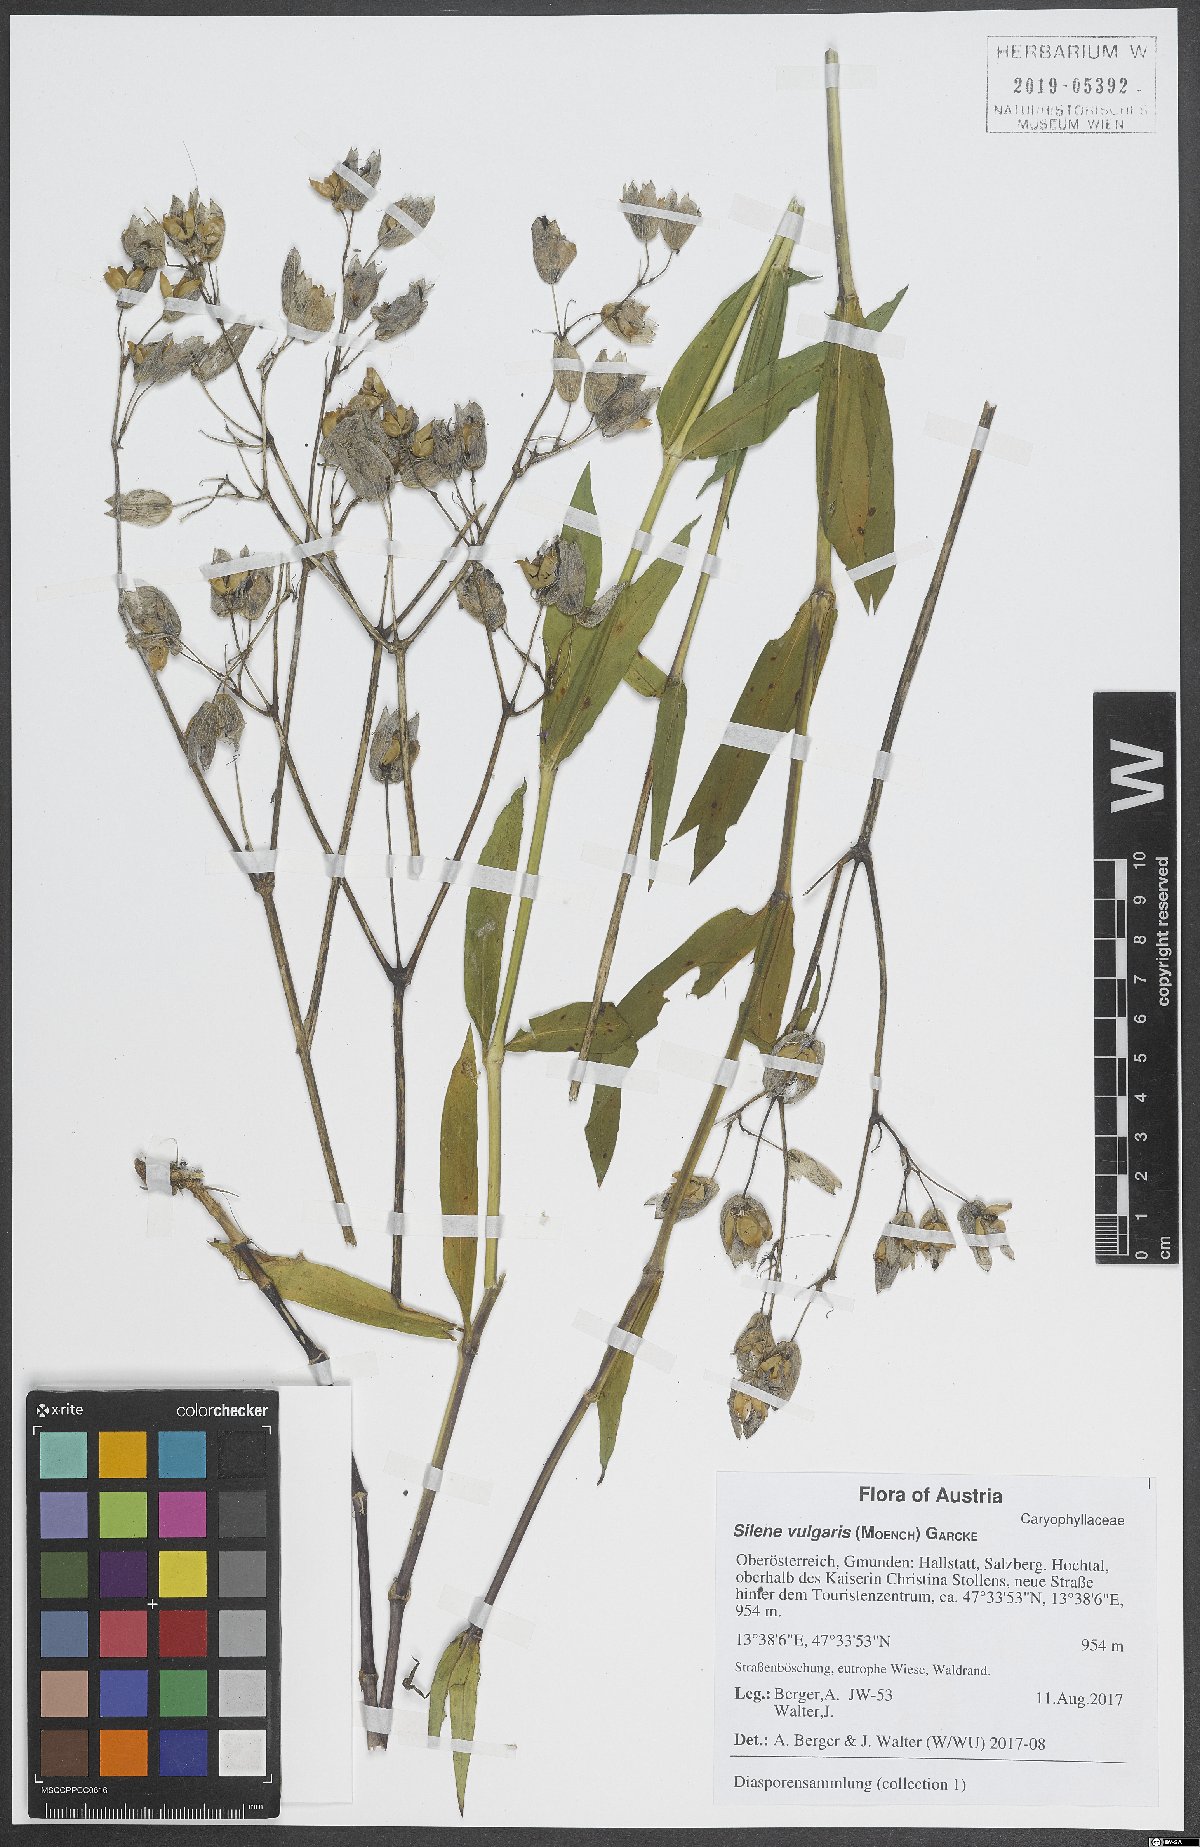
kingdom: Plantae
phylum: Tracheophyta
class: Magnoliopsida
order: Caryophyllales
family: Caryophyllaceae
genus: Silene
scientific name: Silene vulgaris
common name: Bladder campion
